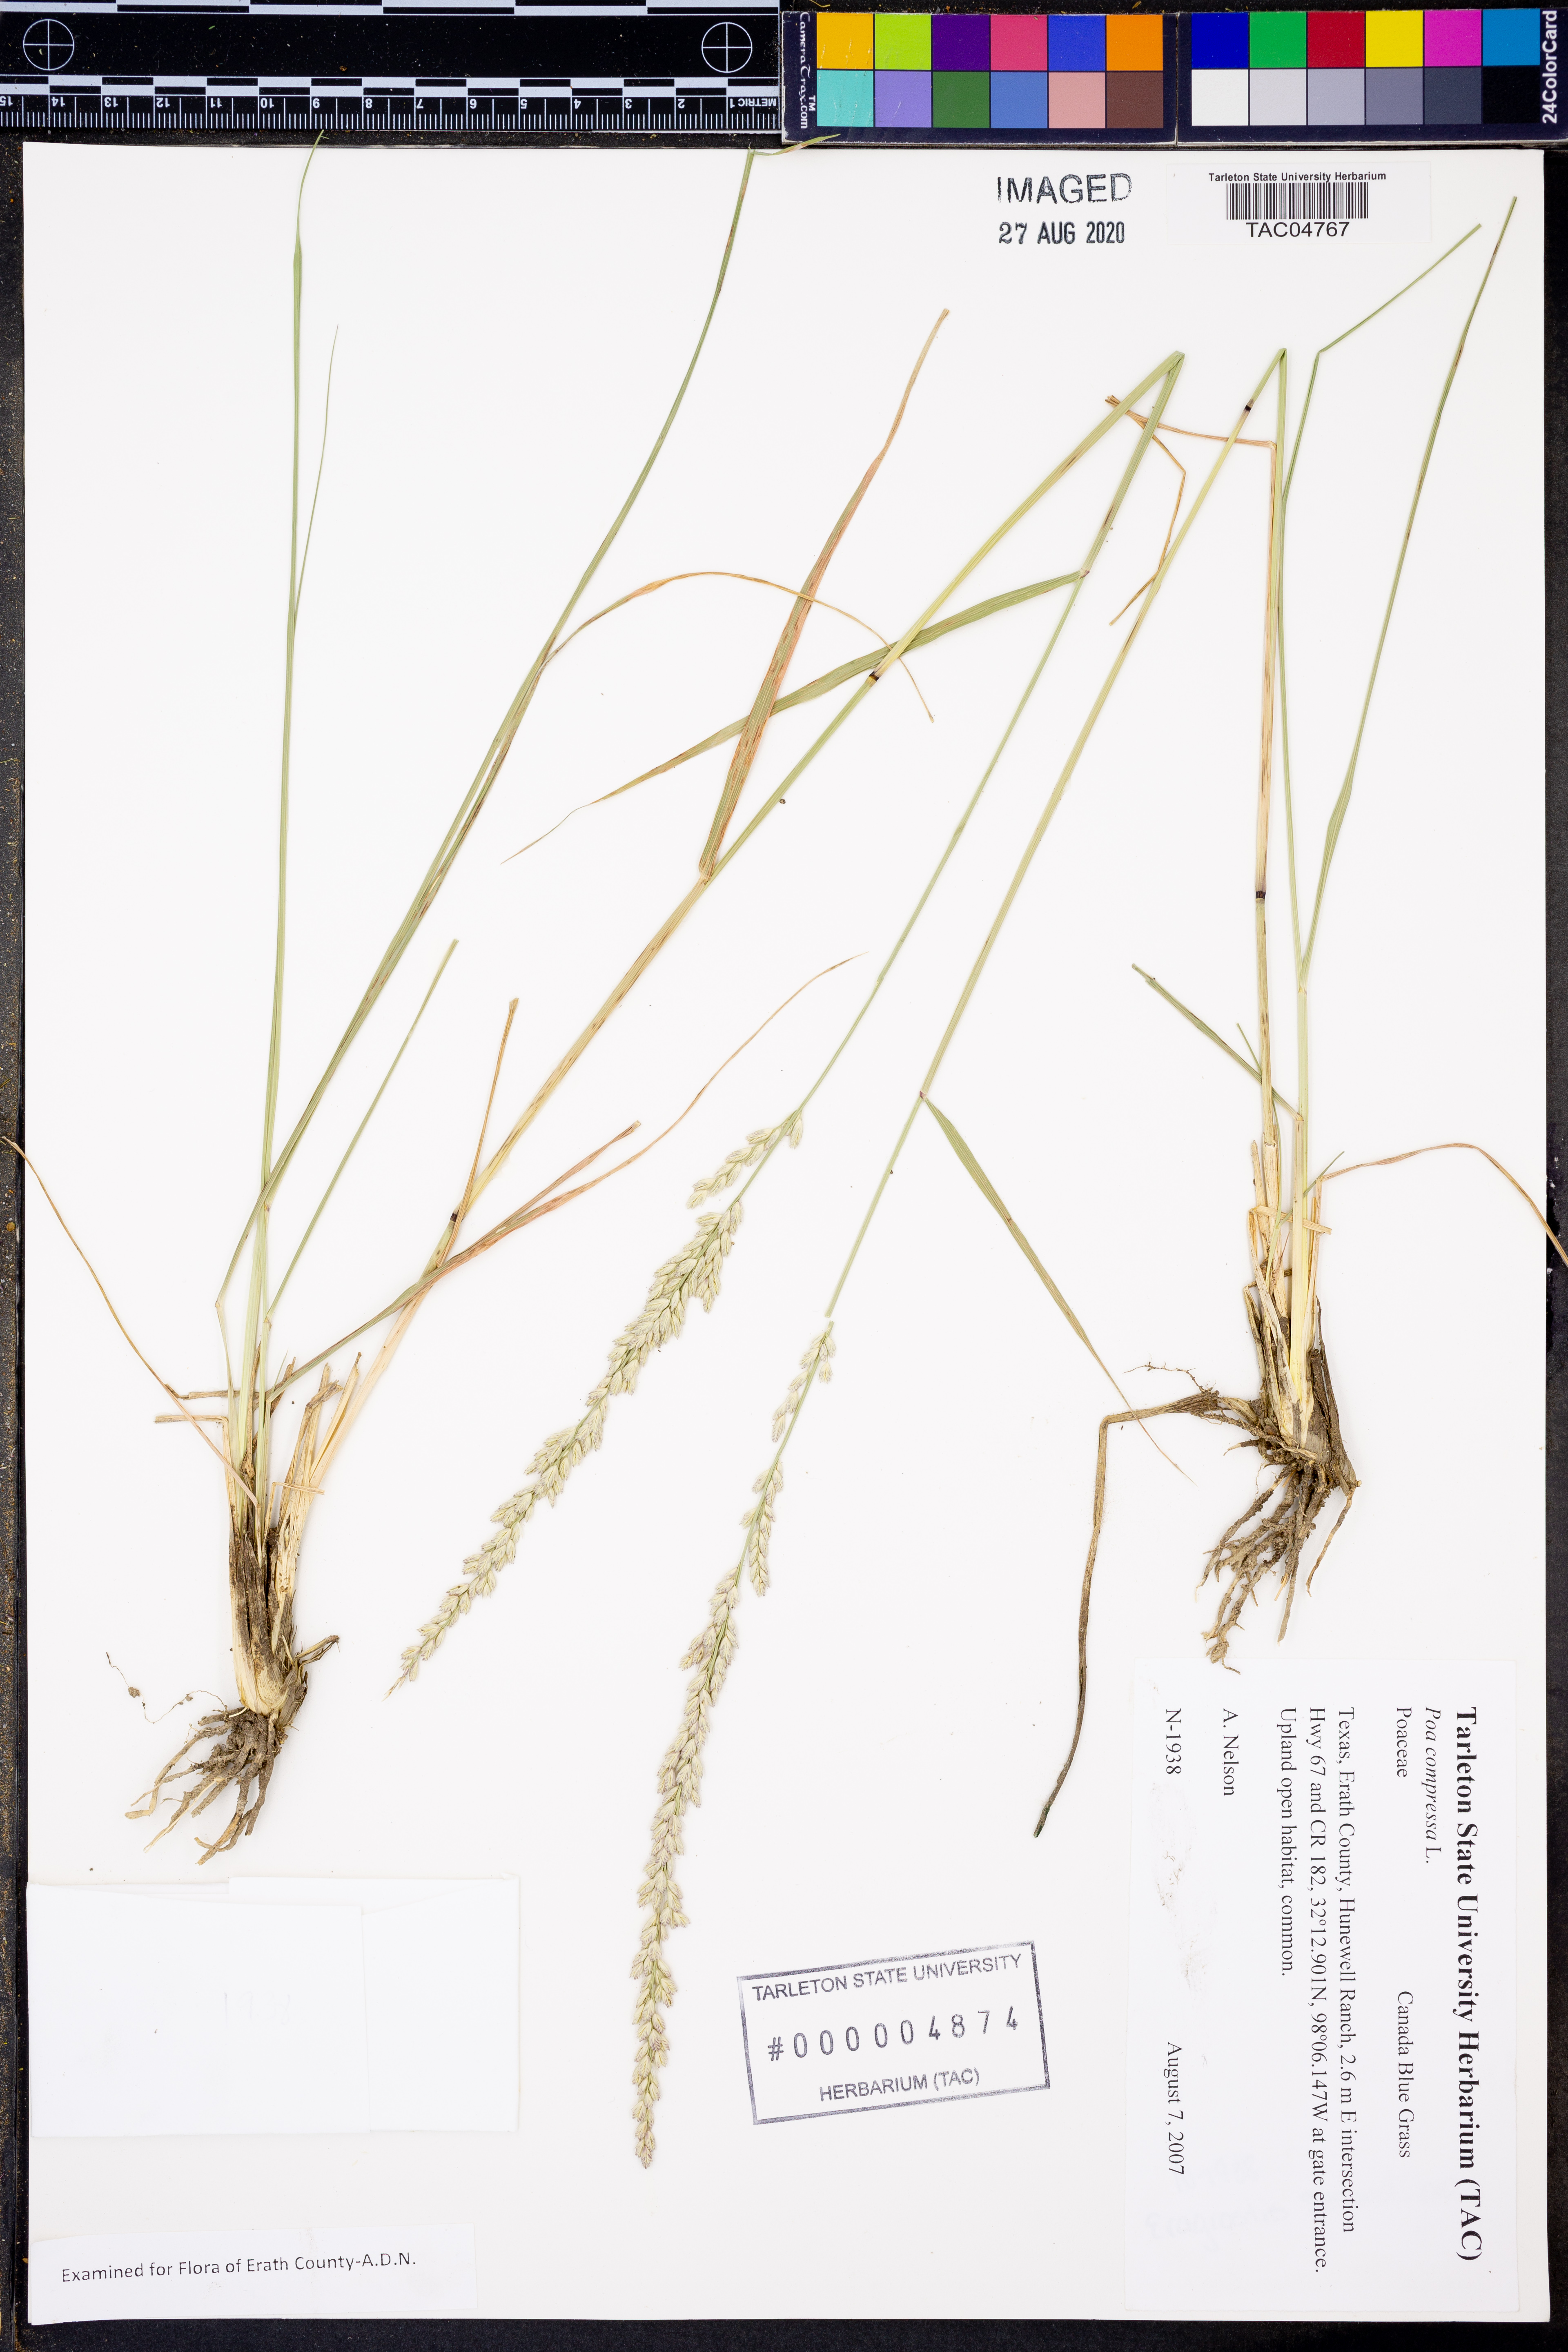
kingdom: Plantae
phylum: Tracheophyta
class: Liliopsida
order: Poales
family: Poaceae
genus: Poa
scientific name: Poa compressa
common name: Canada bluegrass
